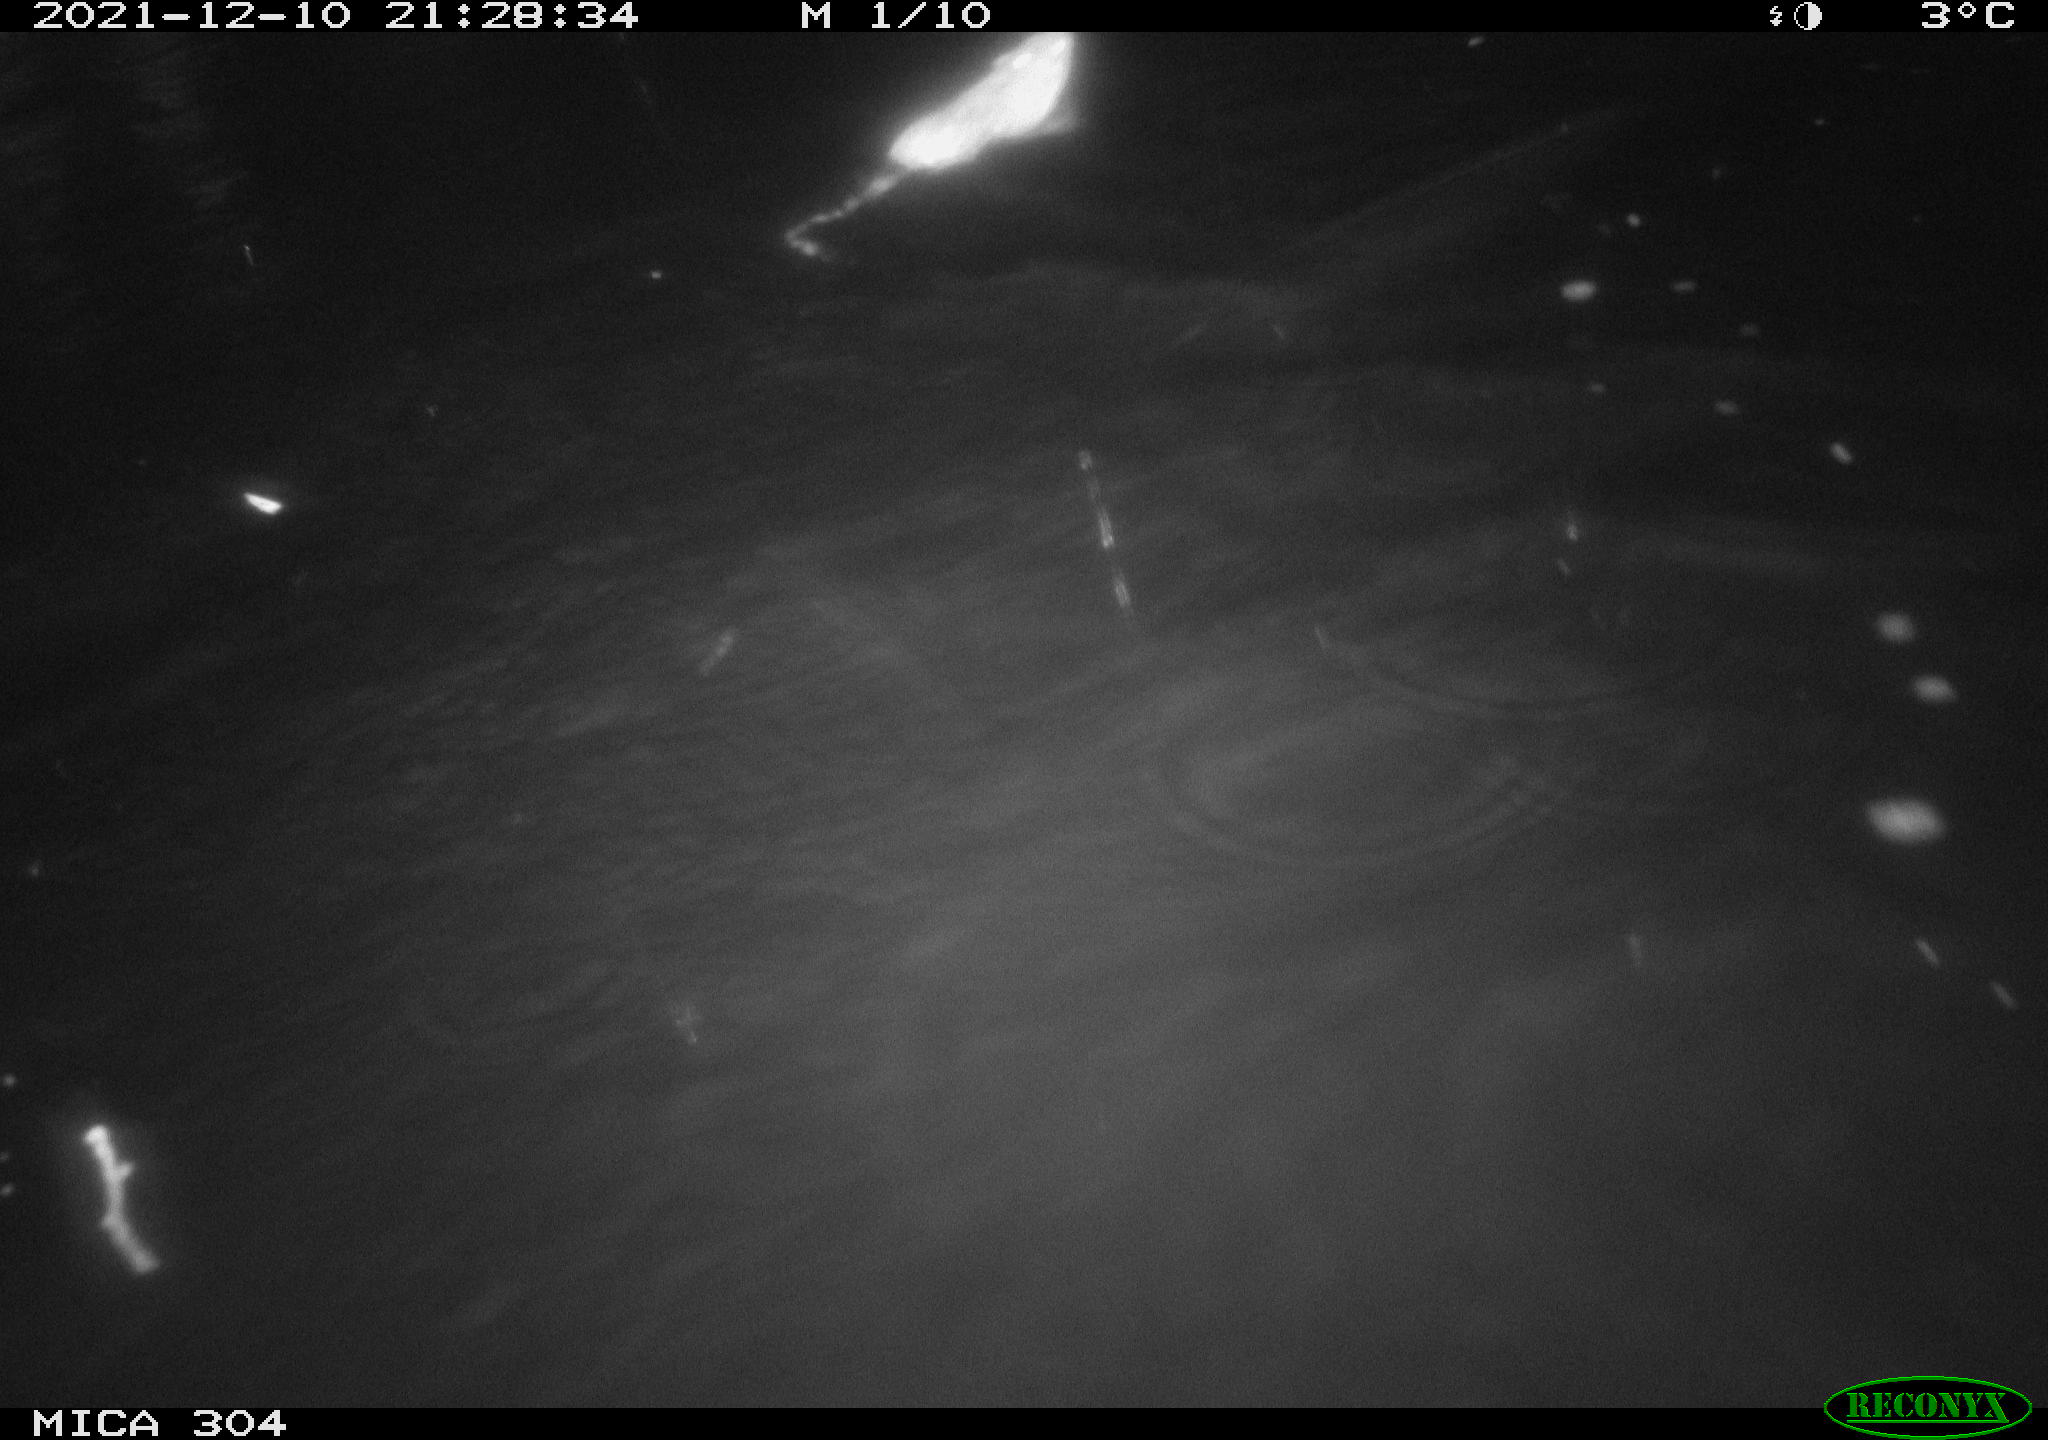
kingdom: Animalia
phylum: Chordata
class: Mammalia
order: Rodentia
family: Muridae
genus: Rattus
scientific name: Rattus norvegicus
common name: Brown rat
